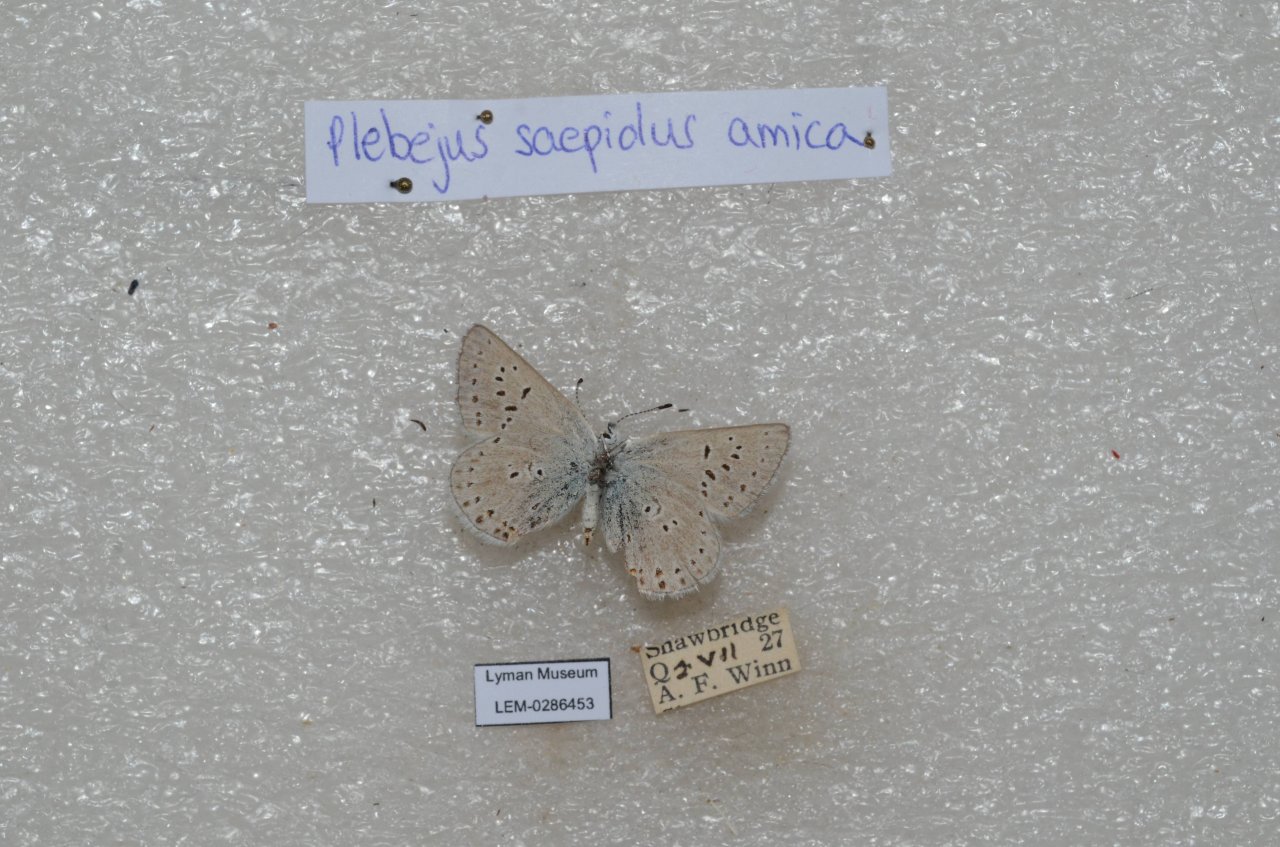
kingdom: Animalia
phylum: Arthropoda
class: Insecta
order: Lepidoptera
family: Lycaenidae
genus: Plebejus
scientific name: Plebejus saepiolus
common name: Greenish Blue
